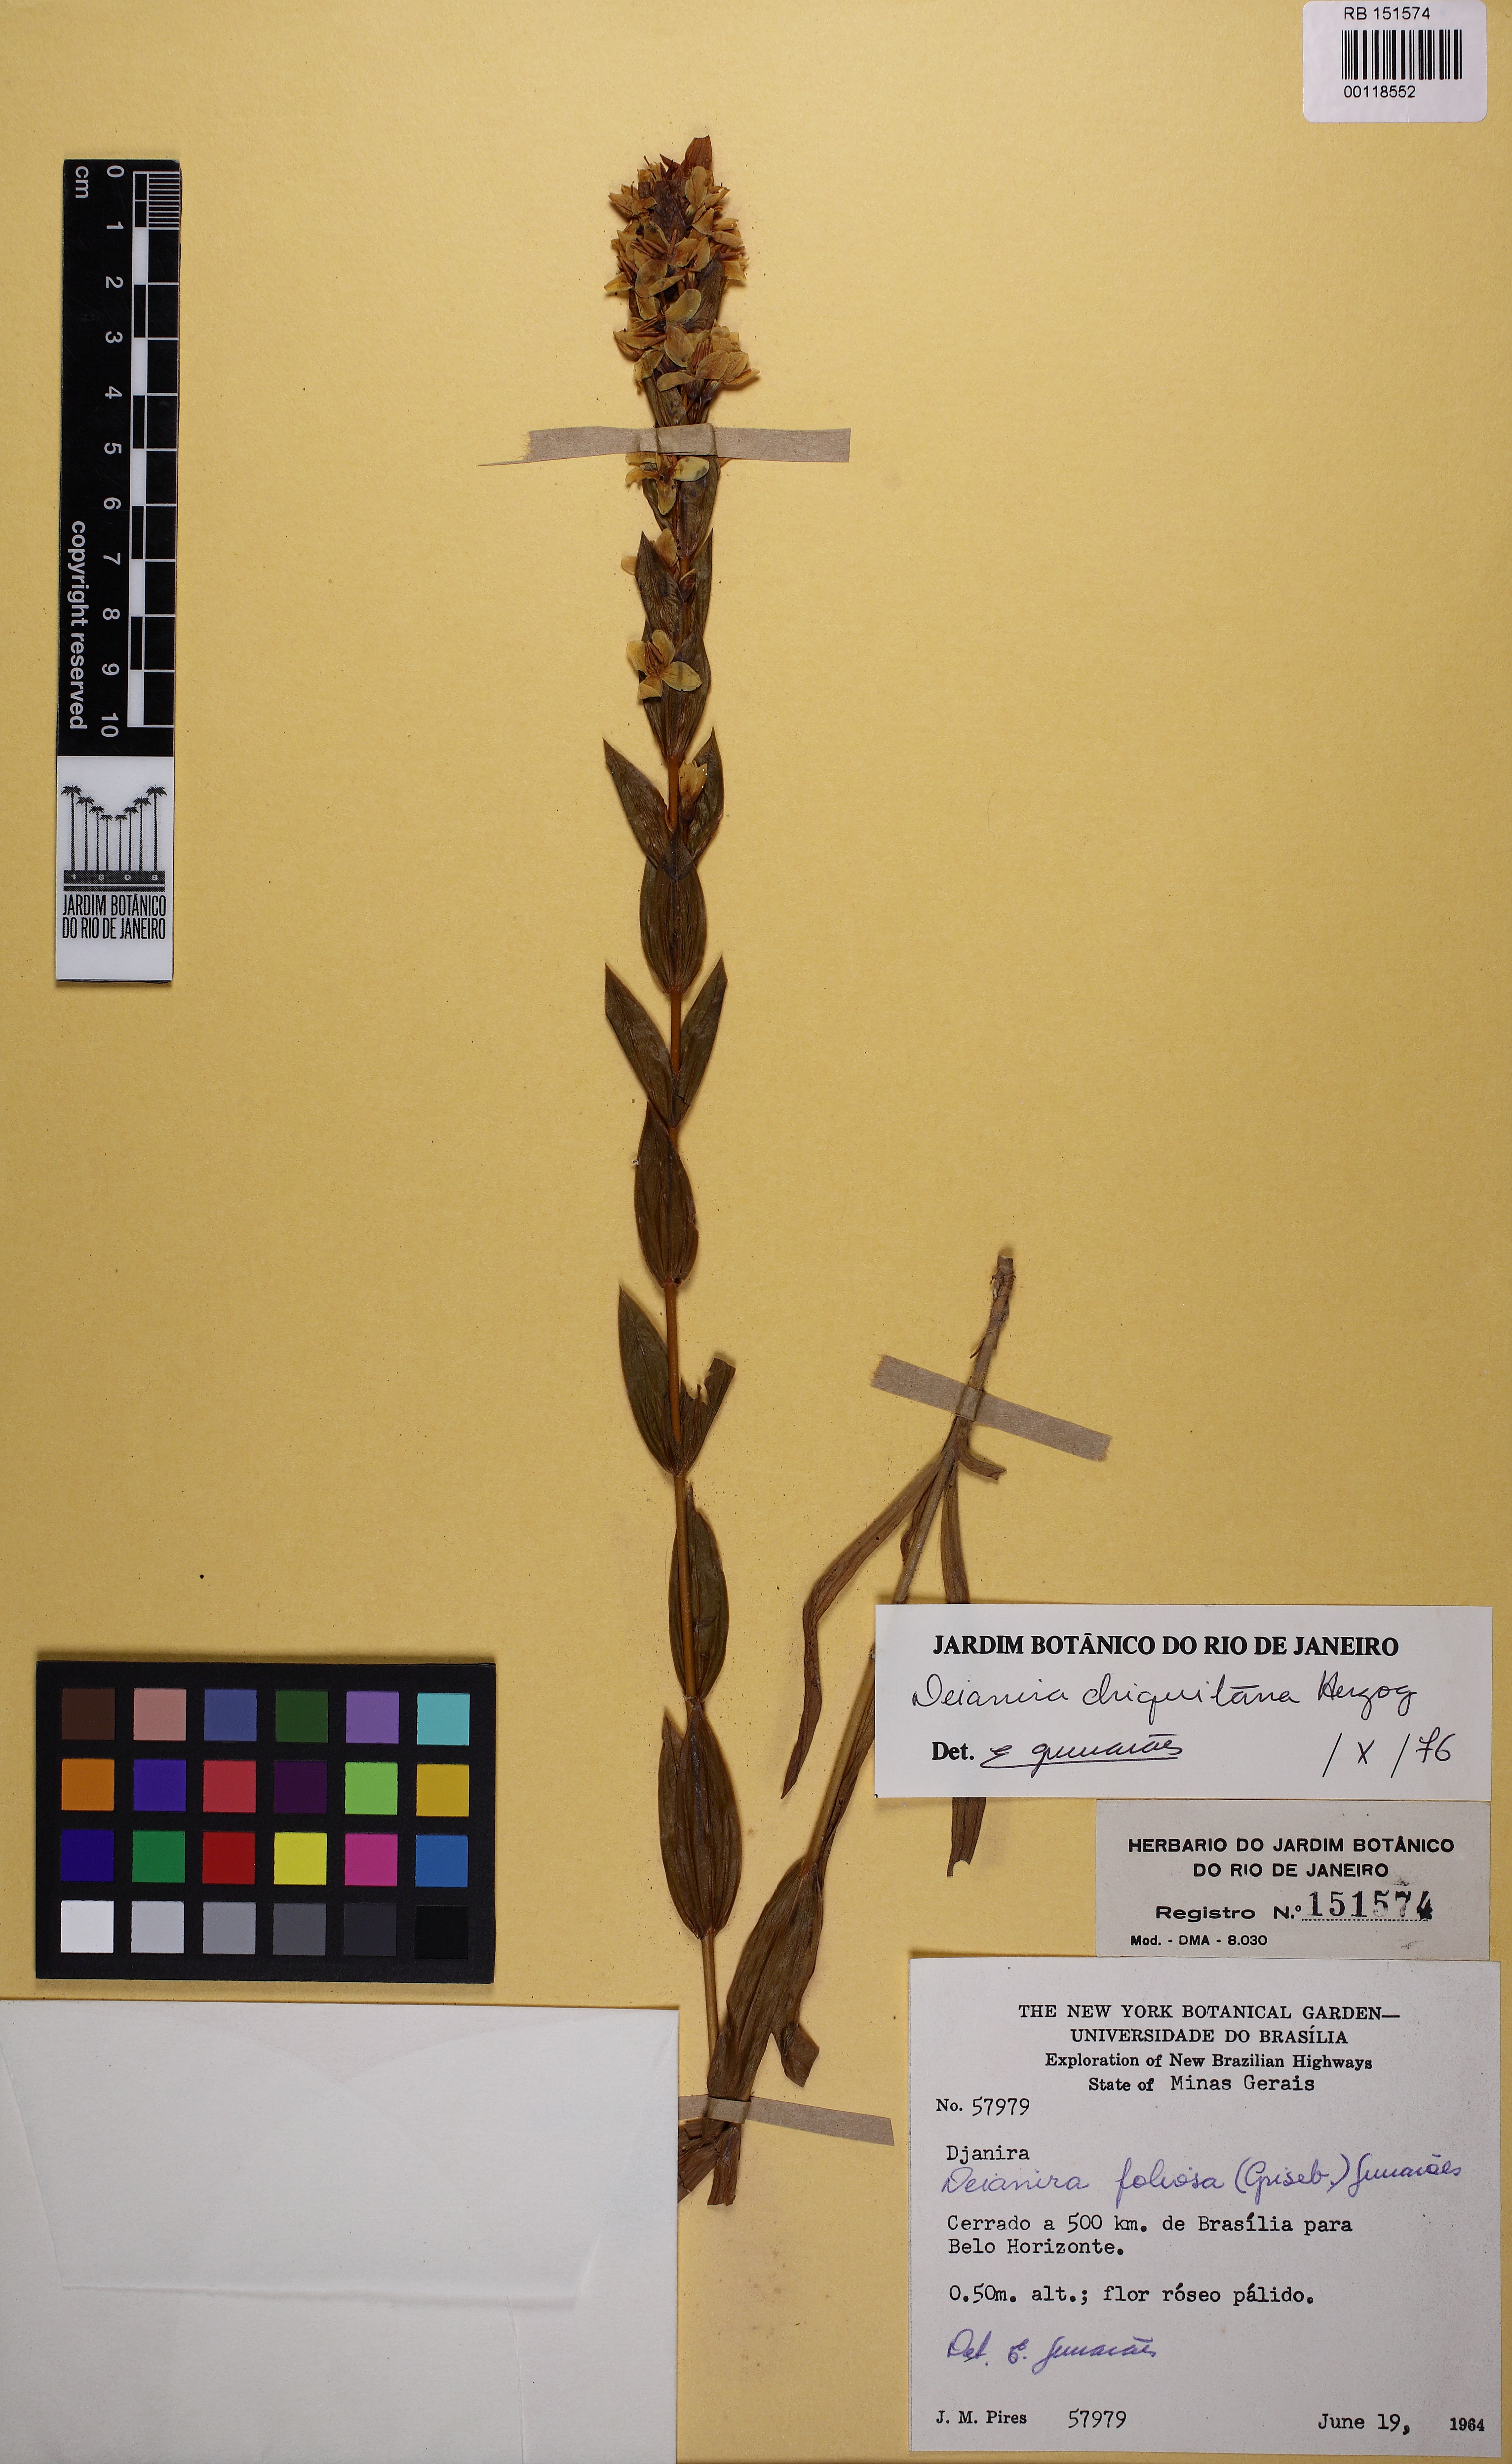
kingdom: Plantae
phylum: Tracheophyta
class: Magnoliopsida
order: Gentianales
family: Gentianaceae
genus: Deianira
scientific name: Deianira chiquitana
